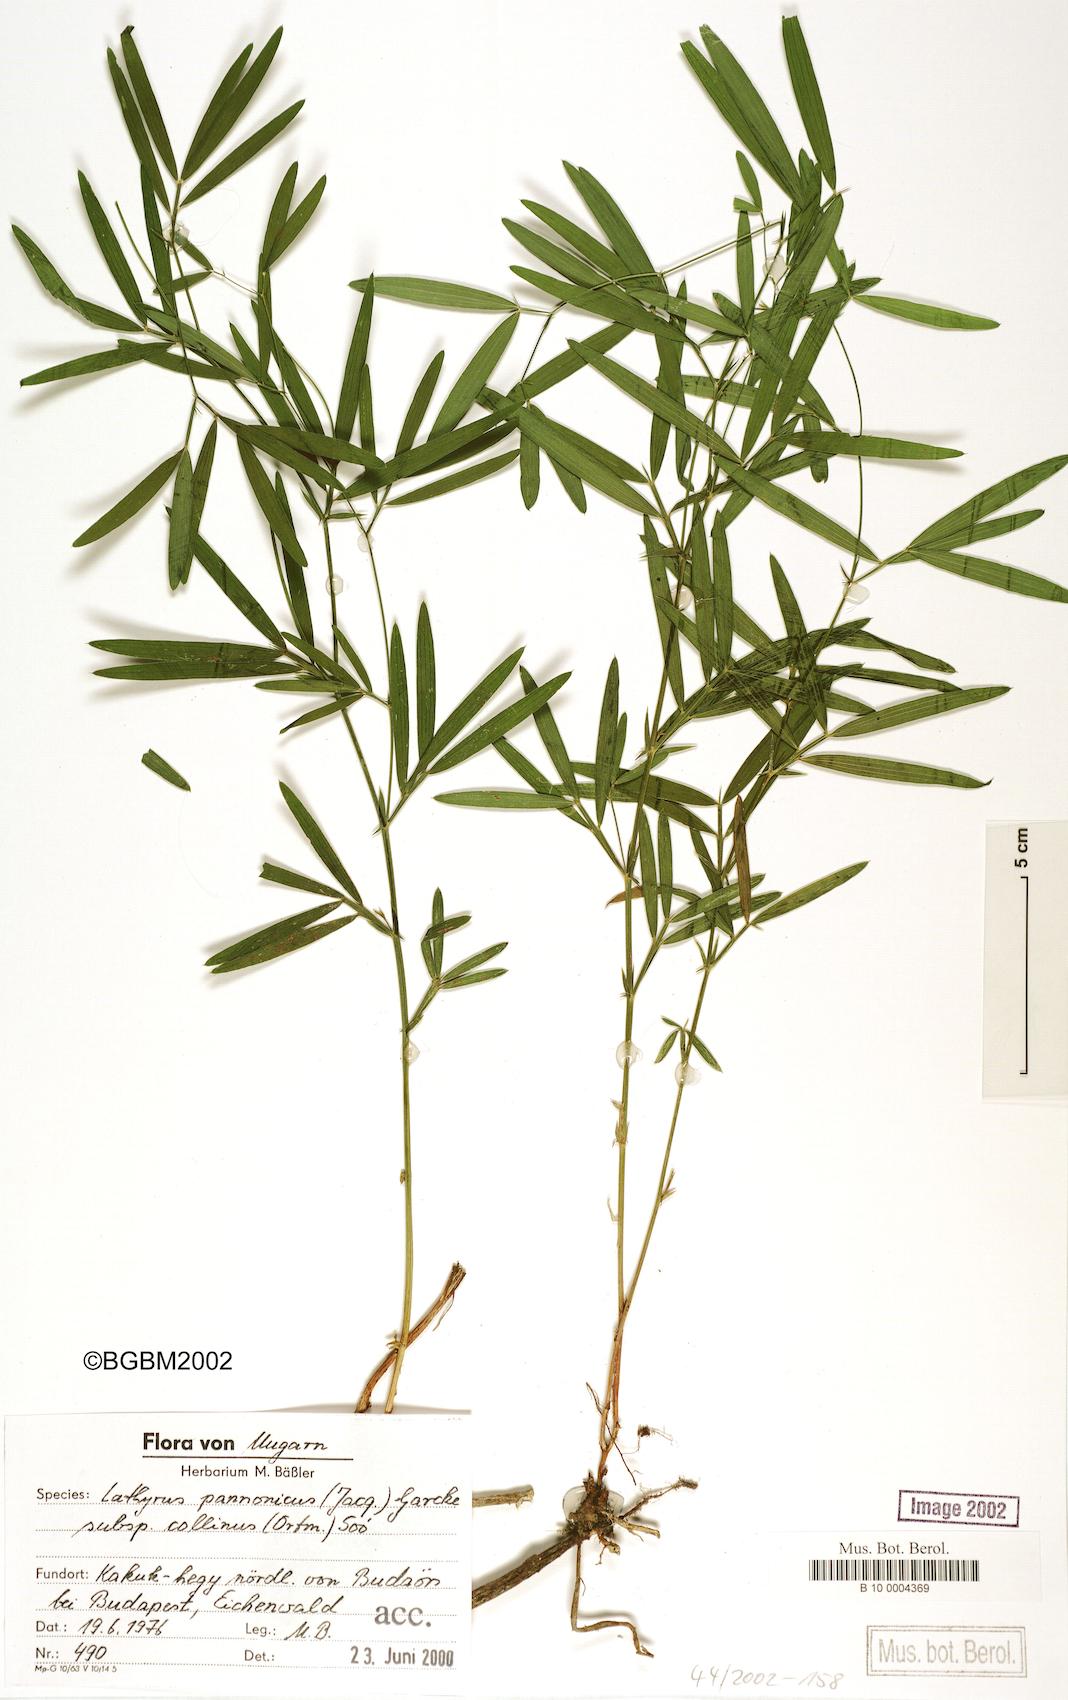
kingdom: Plantae
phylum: Tracheophyta
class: Magnoliopsida
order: Fabales
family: Fabaceae
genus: Lathyrus
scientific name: Lathyrus pannonicus
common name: Pea
